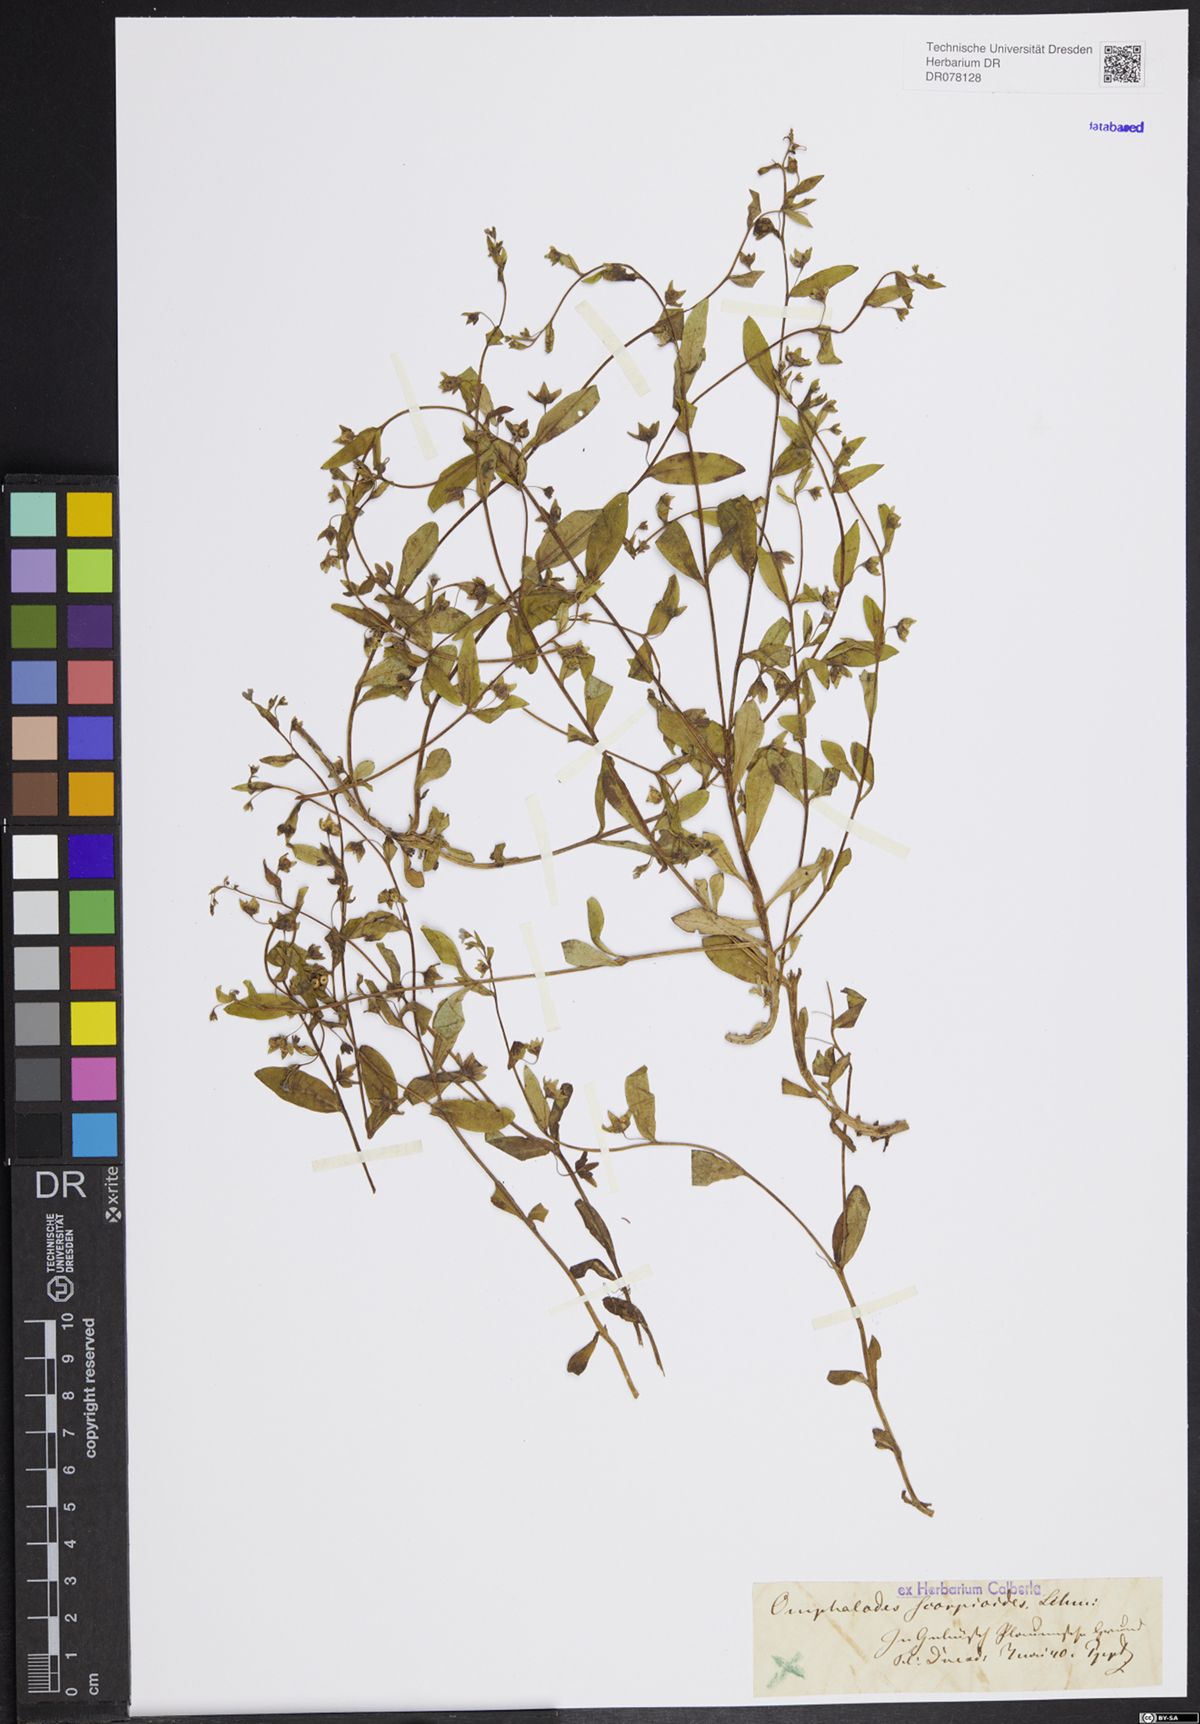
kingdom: Plantae
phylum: Tracheophyta
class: Magnoliopsida
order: Boraginales
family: Boraginaceae
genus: Memoremea
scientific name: Memoremea scorpioides
